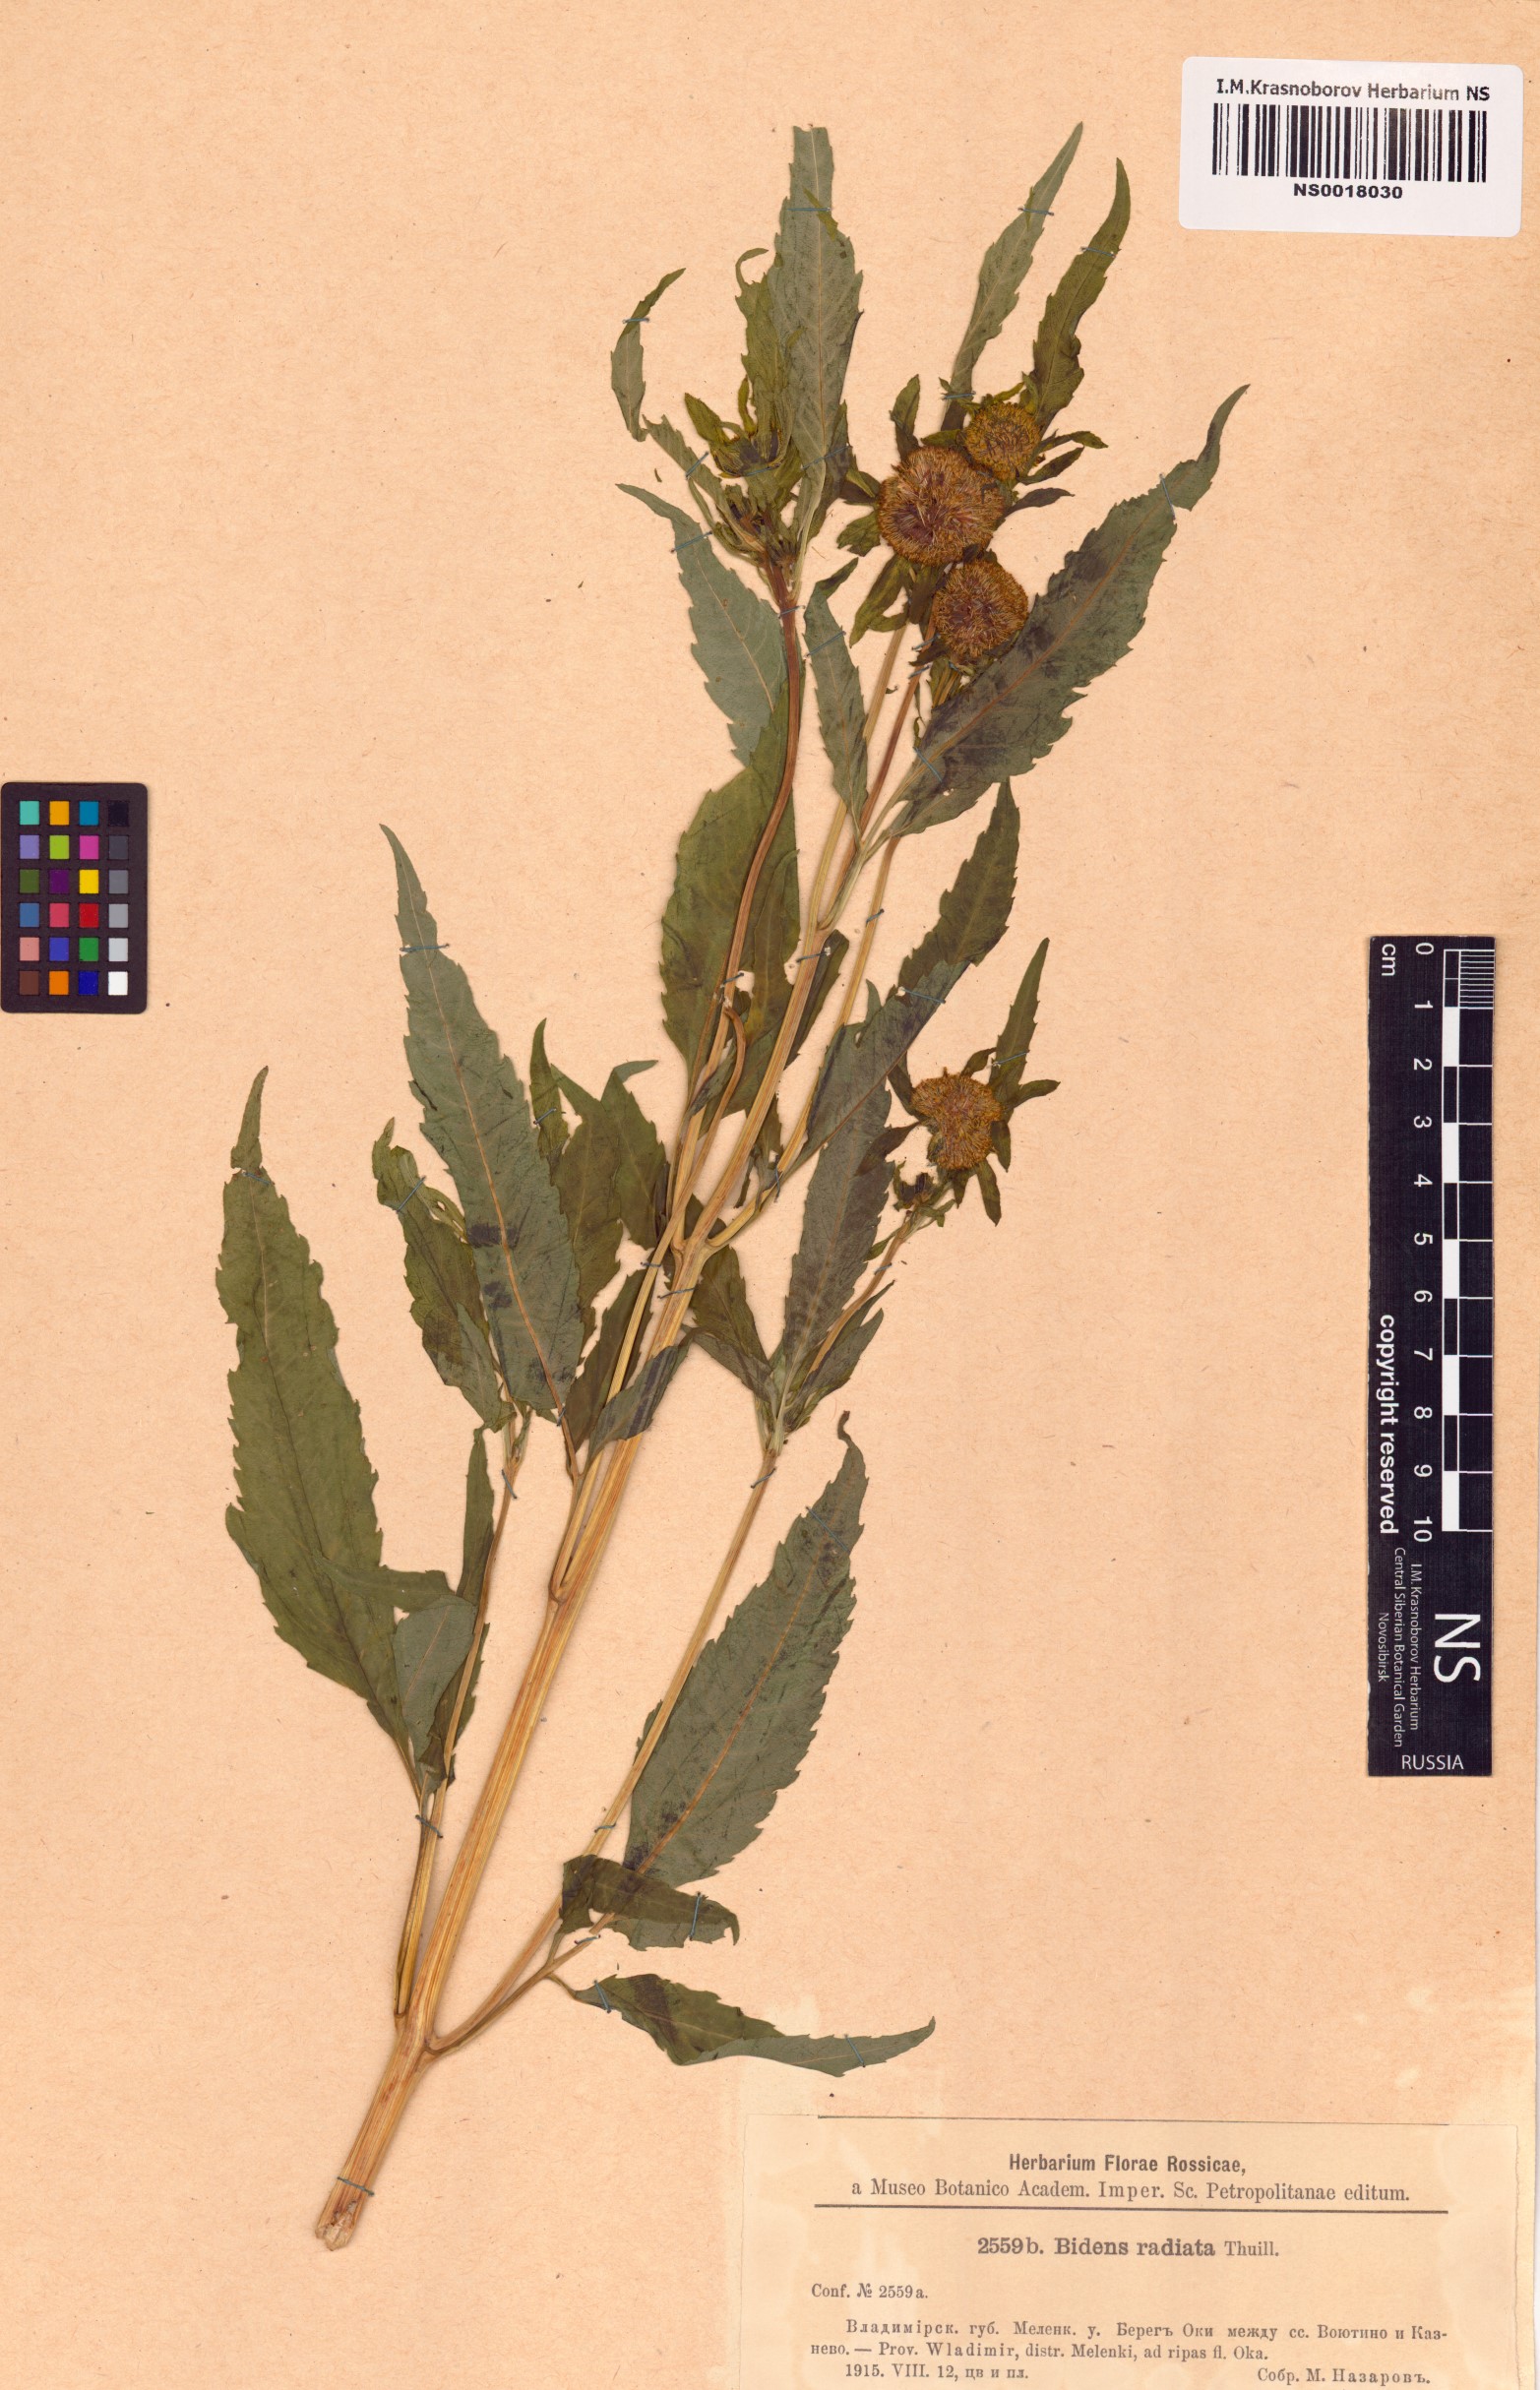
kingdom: Plantae
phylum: Tracheophyta
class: Magnoliopsida
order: Asterales
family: Asteraceae
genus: Bidens
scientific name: Bidens radiata
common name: Radiating bur-marigold
